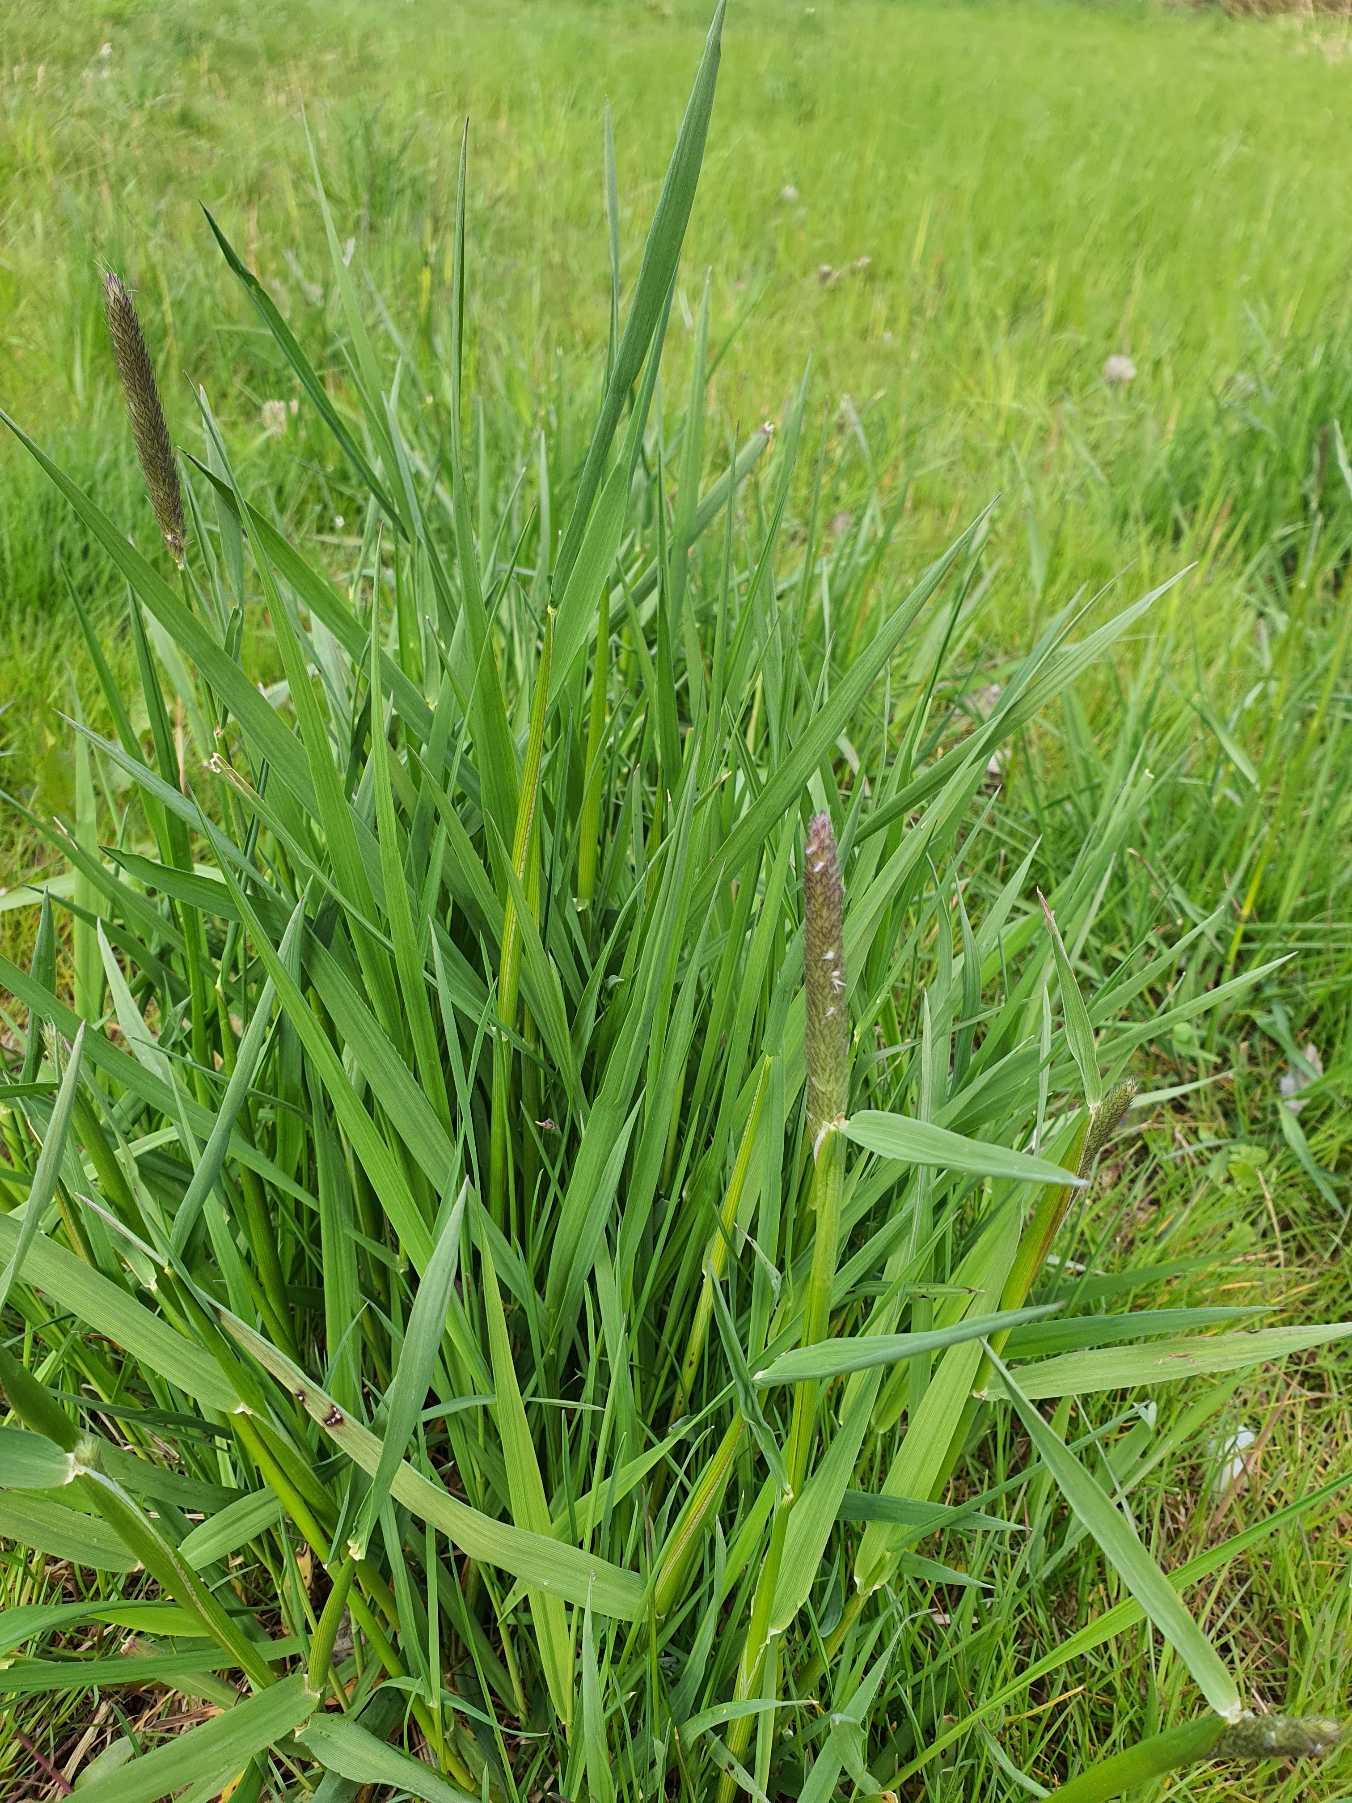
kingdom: Plantae
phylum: Tracheophyta
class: Liliopsida
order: Poales
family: Poaceae
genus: Alopecurus
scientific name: Alopecurus pratensis
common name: Eng-rævehale
